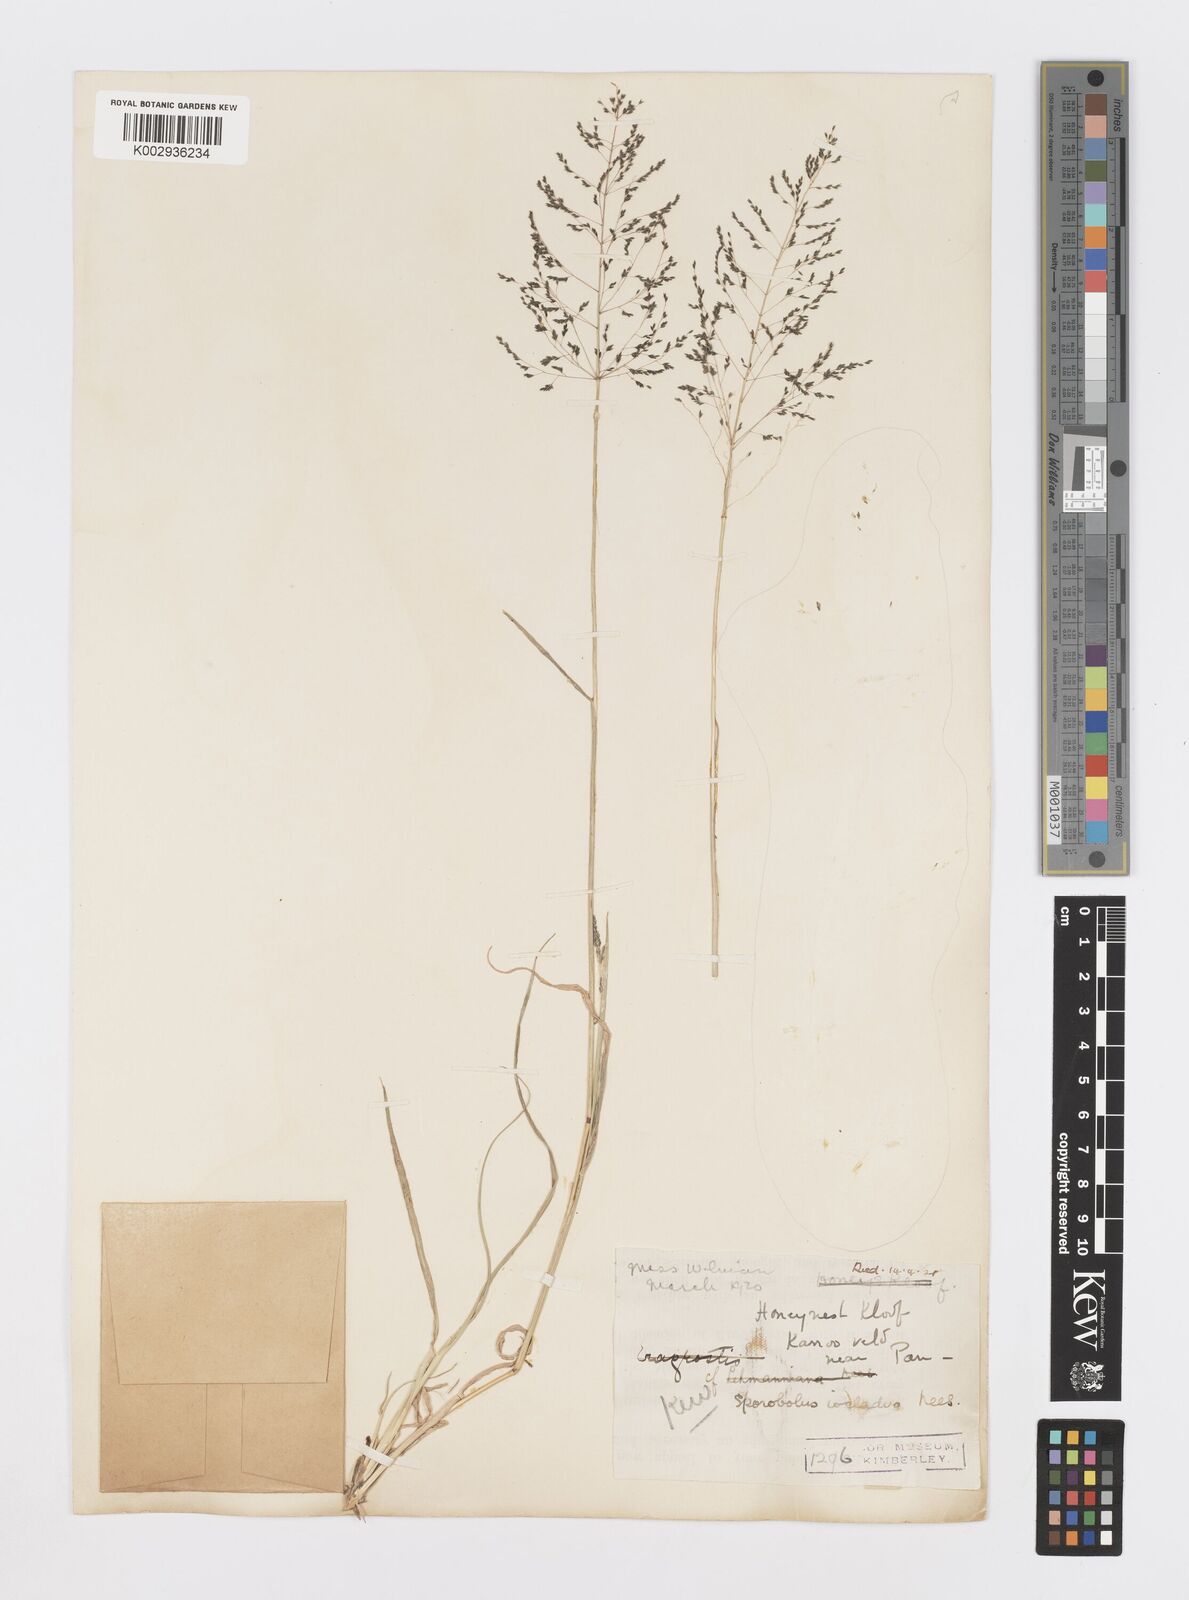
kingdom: Plantae
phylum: Tracheophyta
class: Liliopsida
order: Poales
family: Poaceae
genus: Sporobolus
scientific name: Sporobolus ioclados
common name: Pan dropseed
